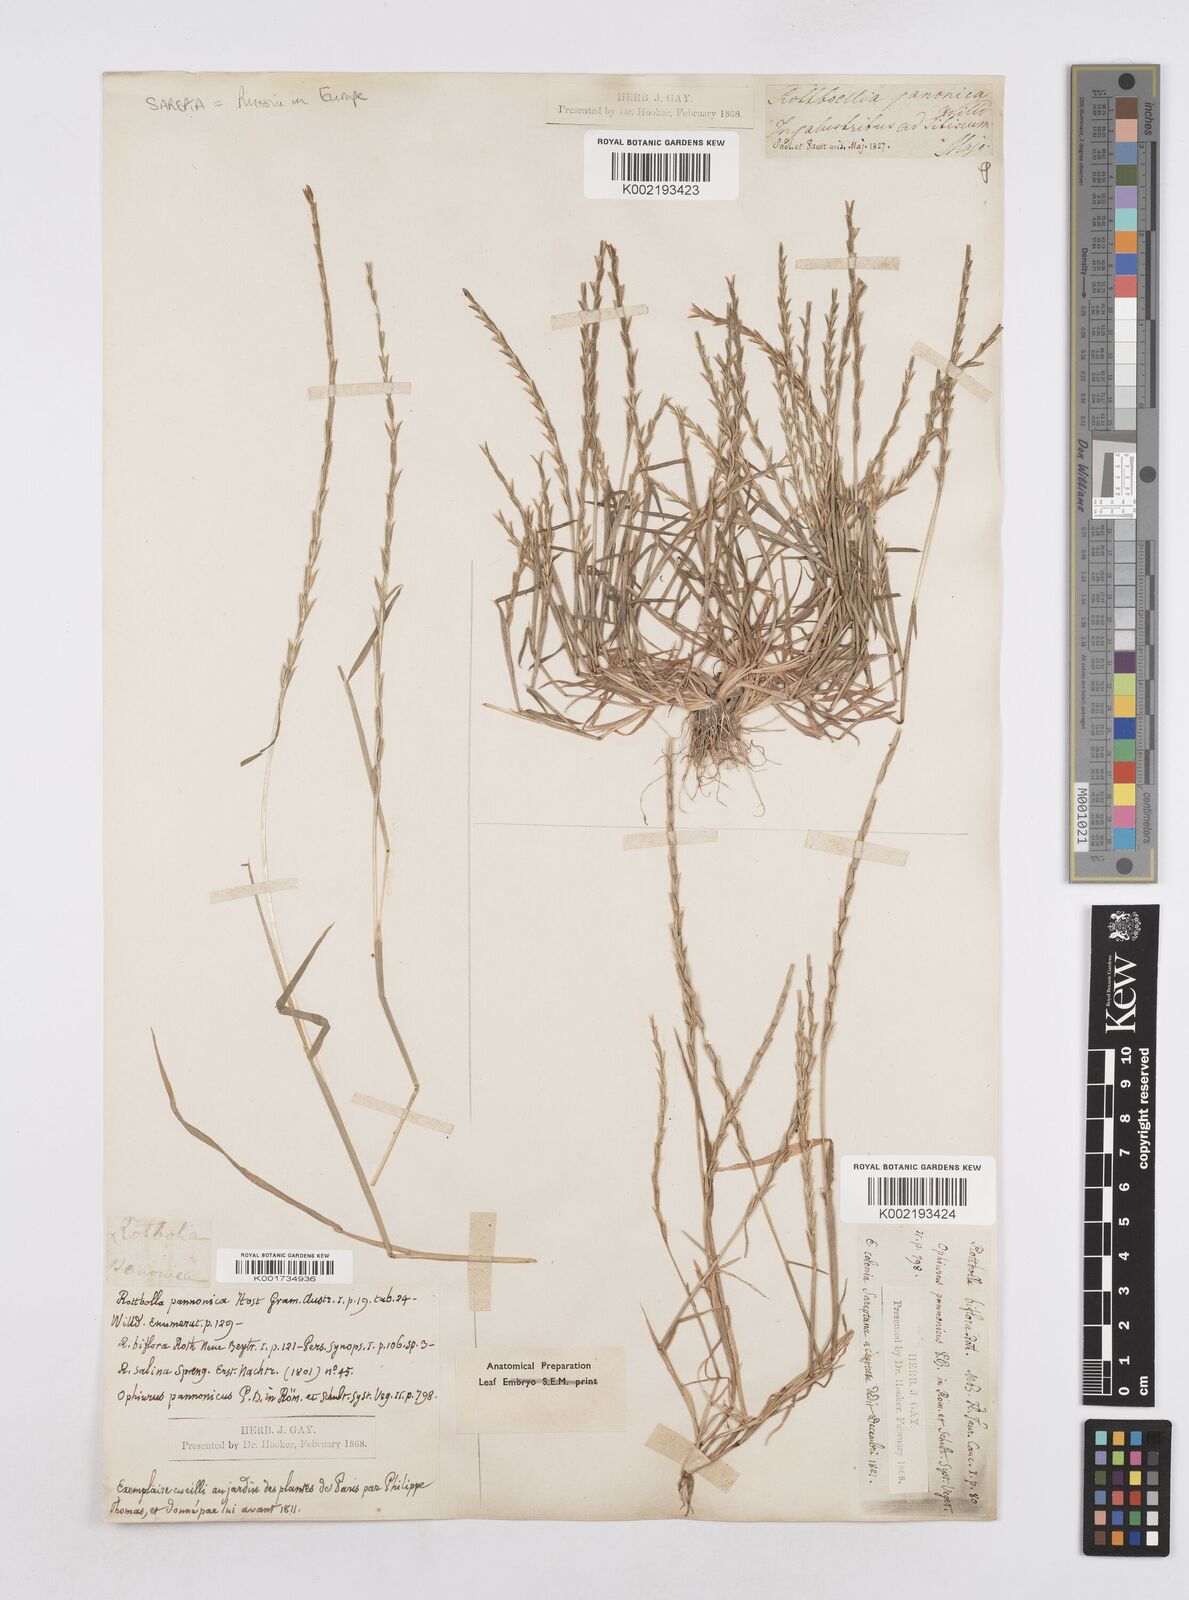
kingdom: Plantae
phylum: Tracheophyta
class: Liliopsida
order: Poales
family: Poaceae
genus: Pholiurus
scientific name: Pholiurus pannonicus
